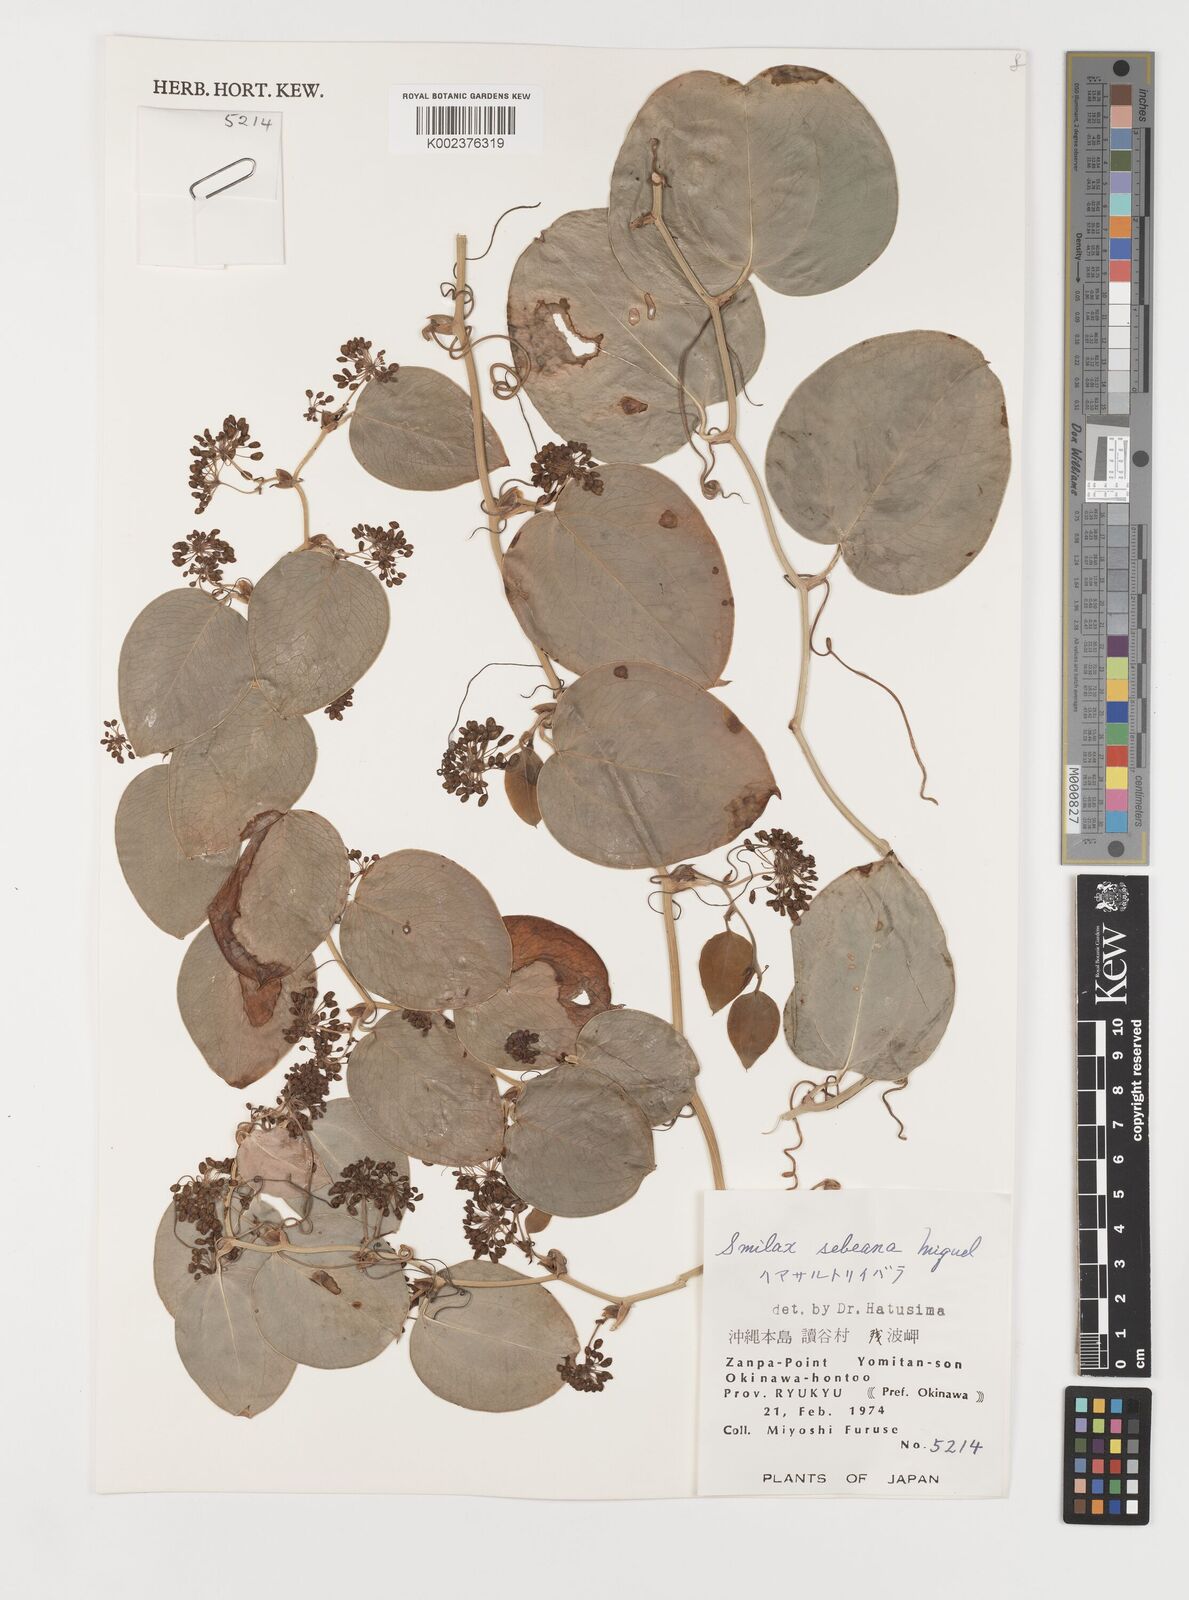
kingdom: Plantae
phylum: Tracheophyta
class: Liliopsida
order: Liliales
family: Smilacaceae
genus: Smilax
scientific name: Smilax sebeana
